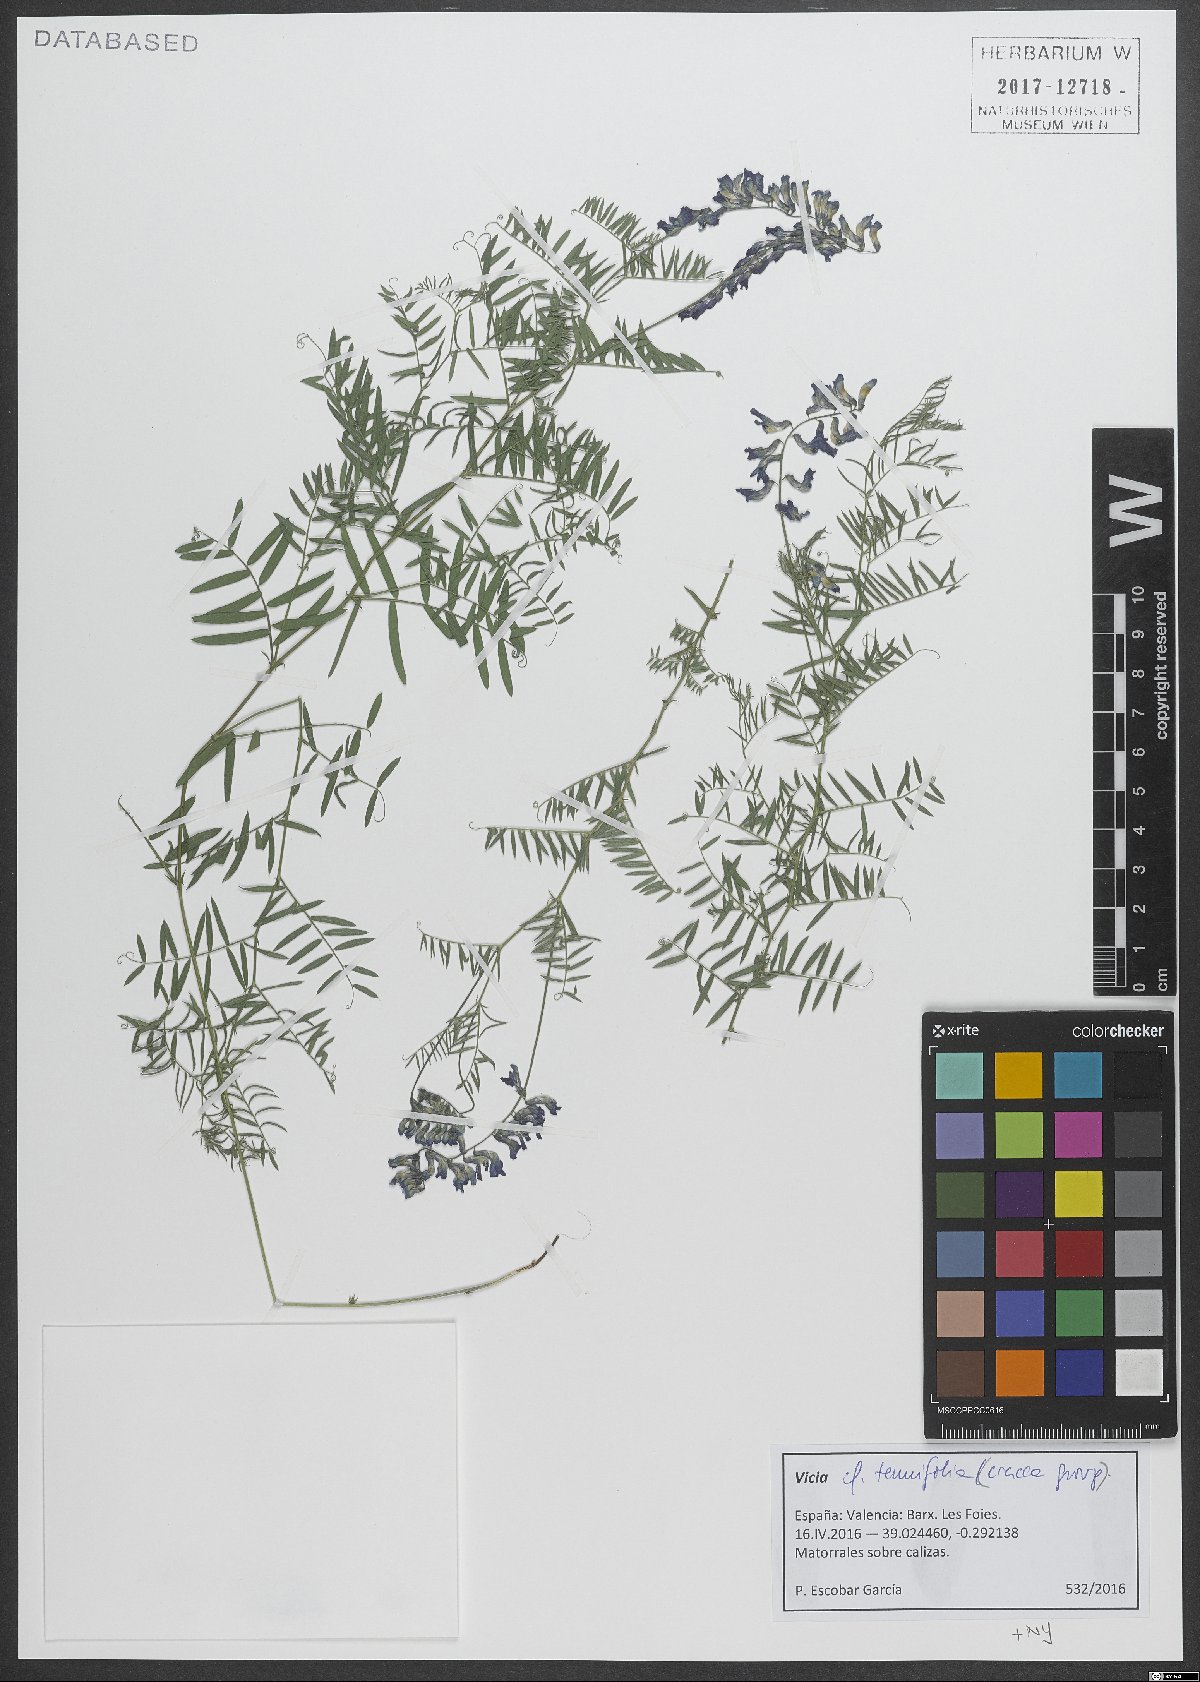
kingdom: Plantae
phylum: Tracheophyta
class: Magnoliopsida
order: Fabales
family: Fabaceae
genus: Vicia
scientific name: Vicia tenuifolia
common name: Fine-leaved vetch
